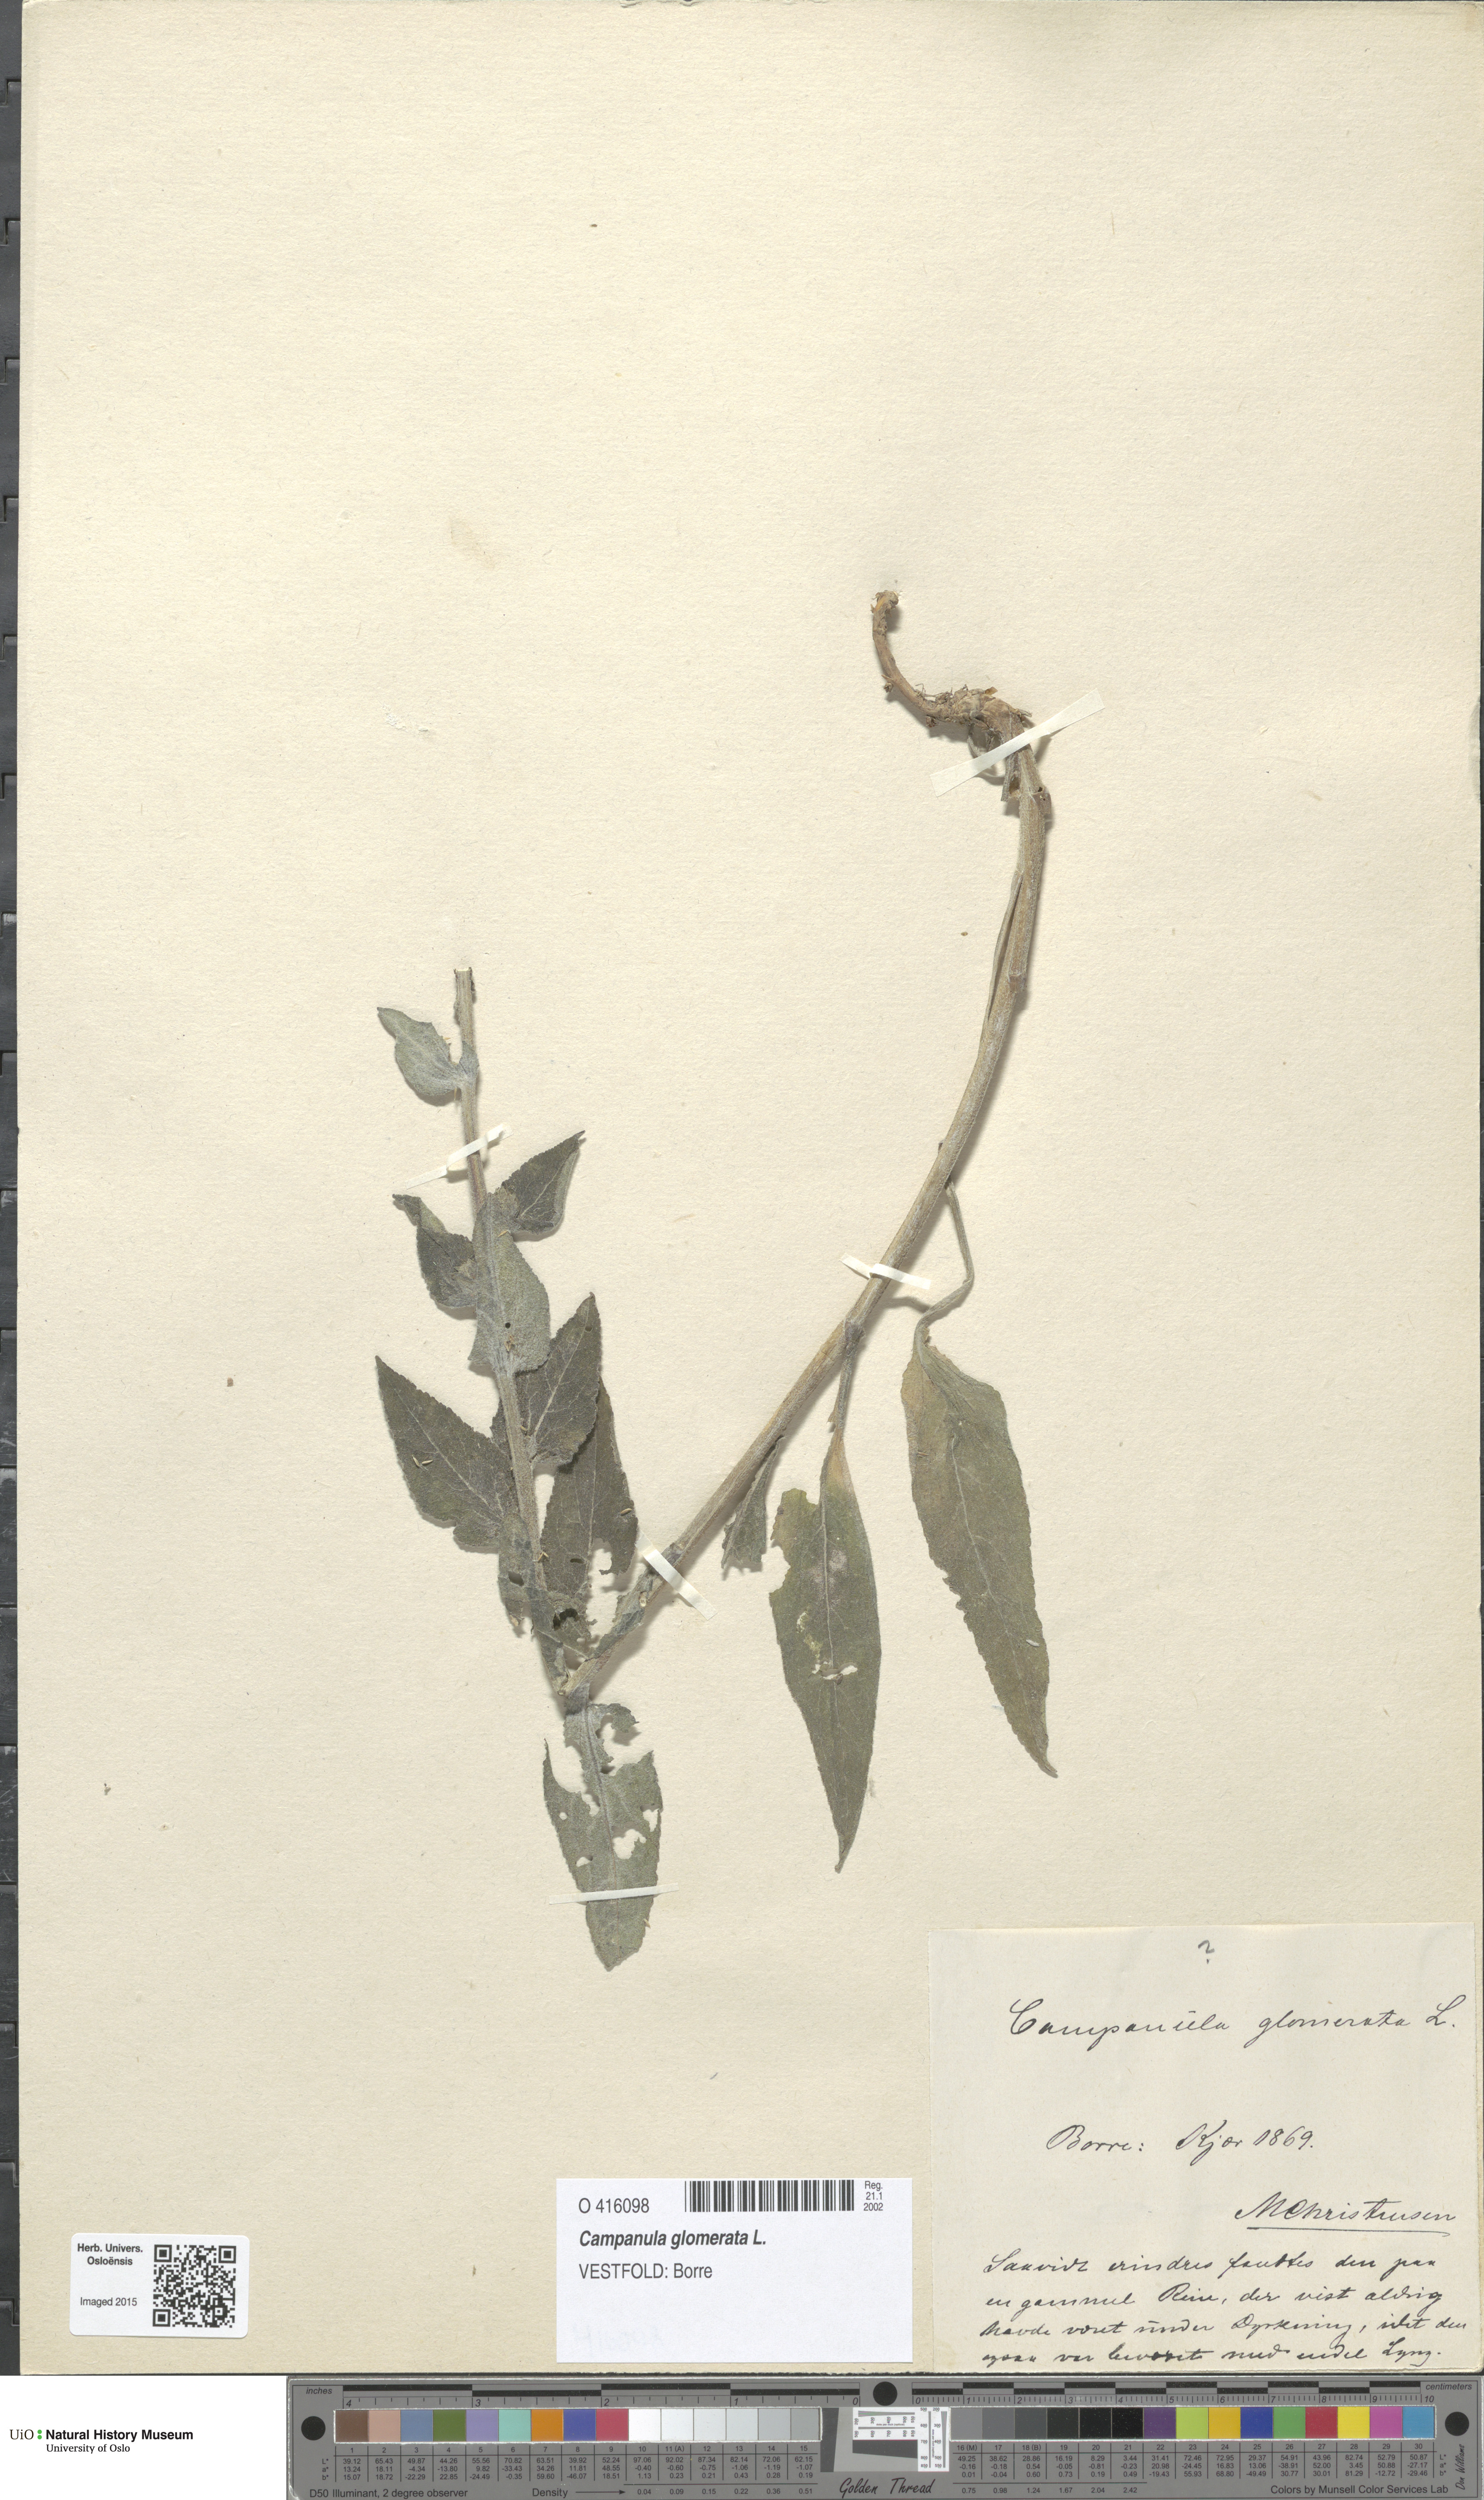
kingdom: Plantae
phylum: Tracheophyta
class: Magnoliopsida
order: Asterales
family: Campanulaceae
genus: Campanula
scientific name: Campanula glomerata
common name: Clustered bellflower
